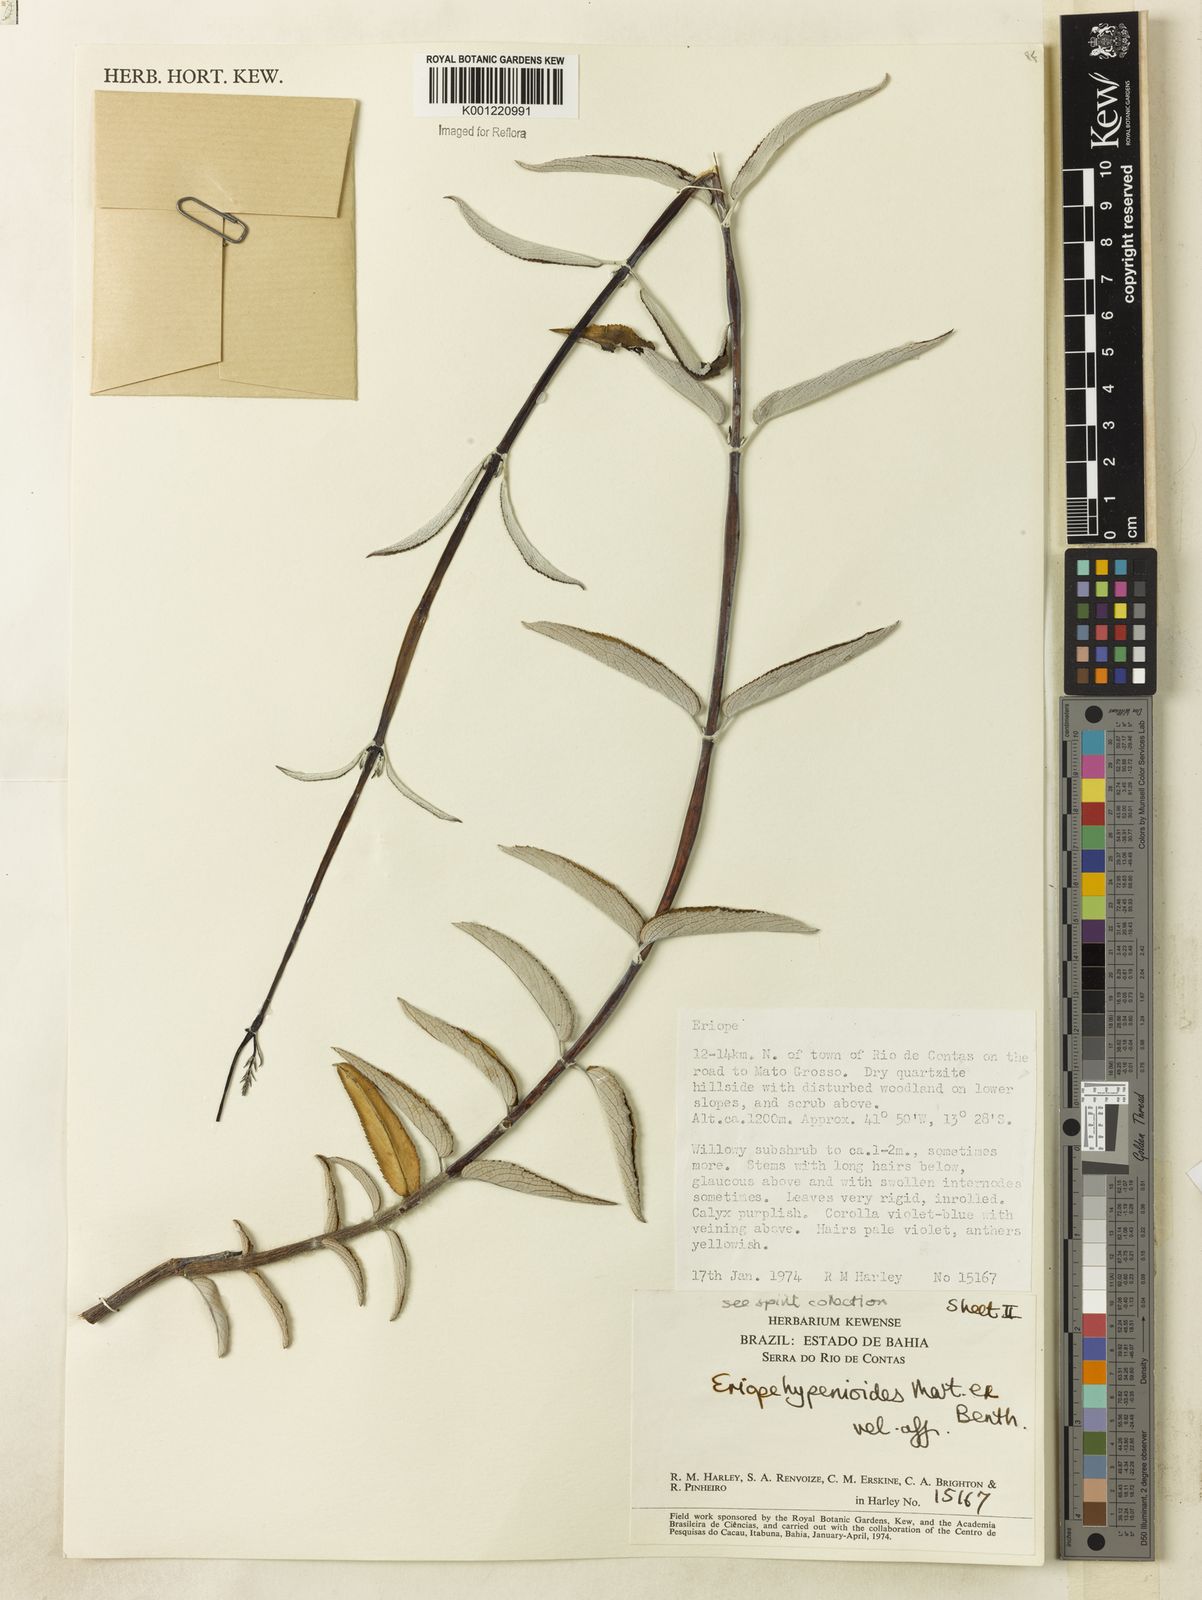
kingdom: Plantae
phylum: Tracheophyta
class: Magnoliopsida
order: Lamiales
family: Lamiaceae
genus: Eriope
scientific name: Eriope hypenioides
